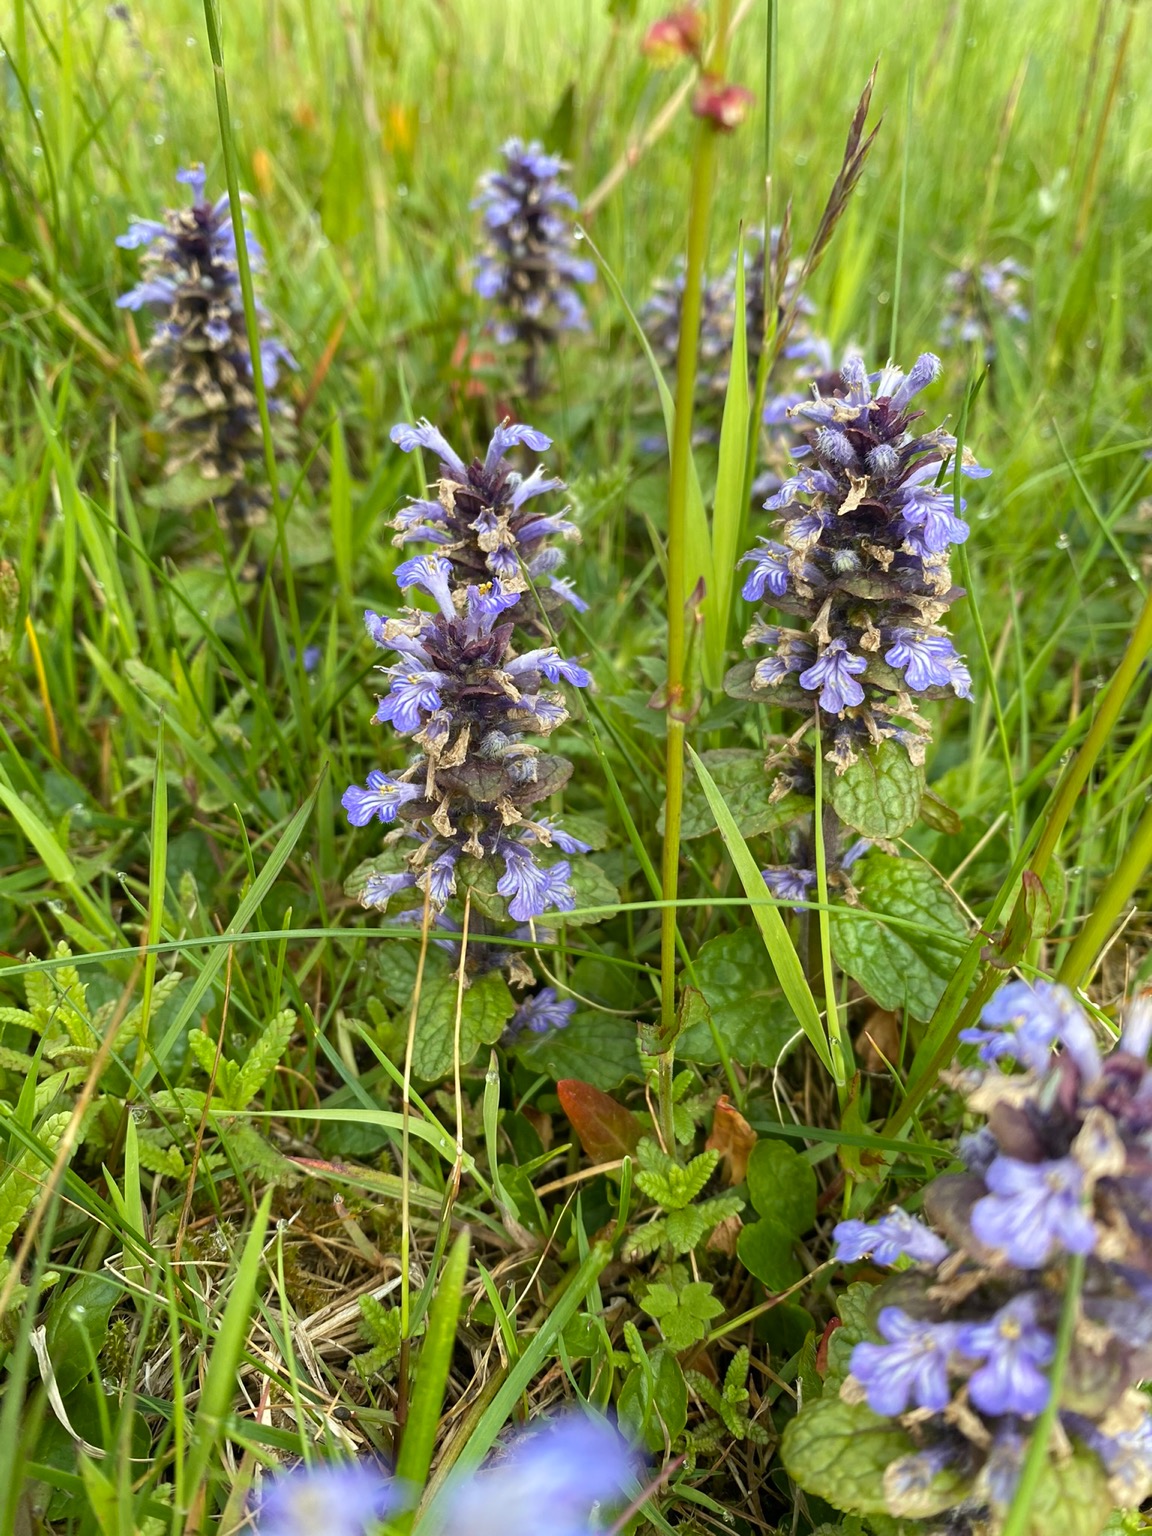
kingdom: Plantae
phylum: Tracheophyta
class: Magnoliopsida
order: Lamiales
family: Lamiaceae
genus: Ajuga
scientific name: Ajuga reptans
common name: Krybende læbeløs
